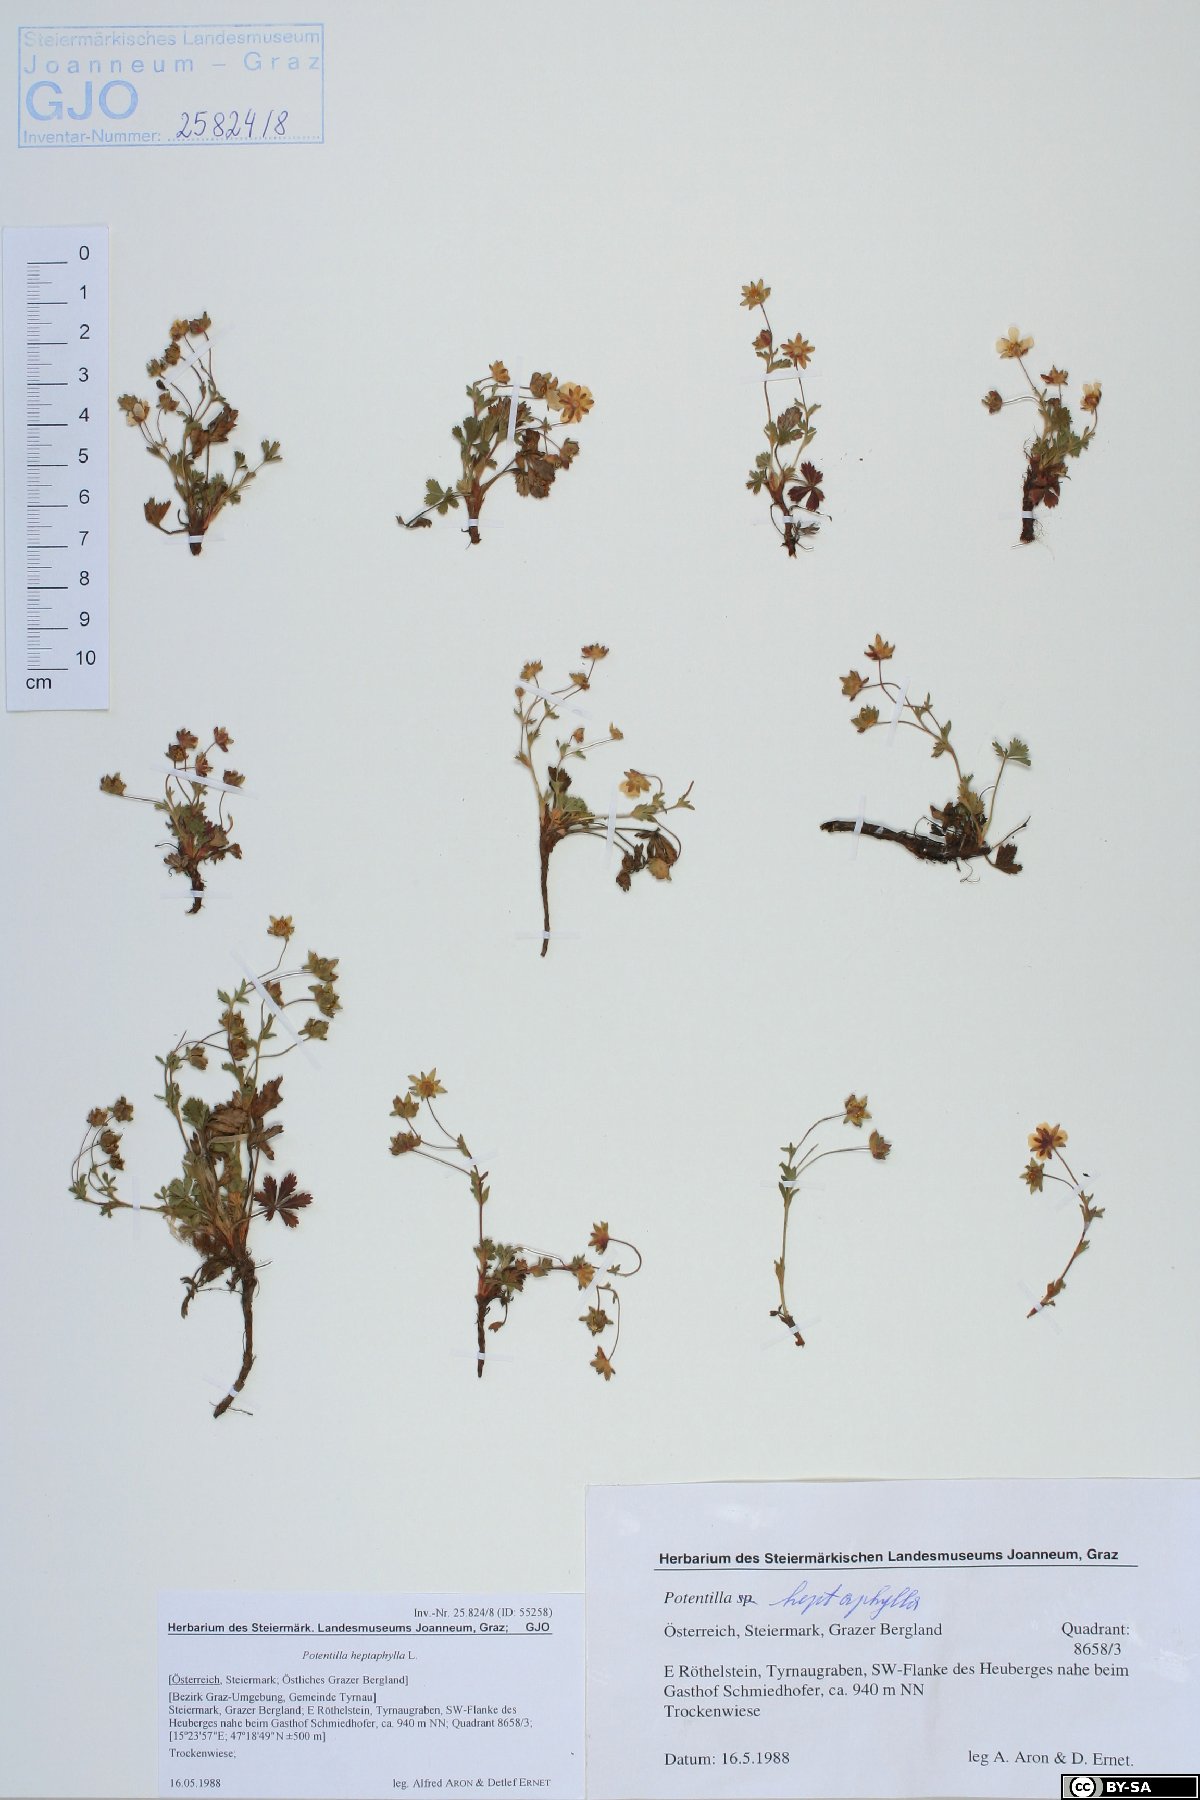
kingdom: Plantae
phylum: Tracheophyta
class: Magnoliopsida
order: Rosales
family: Rosaceae
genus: Potentilla
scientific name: Potentilla heptaphylla
